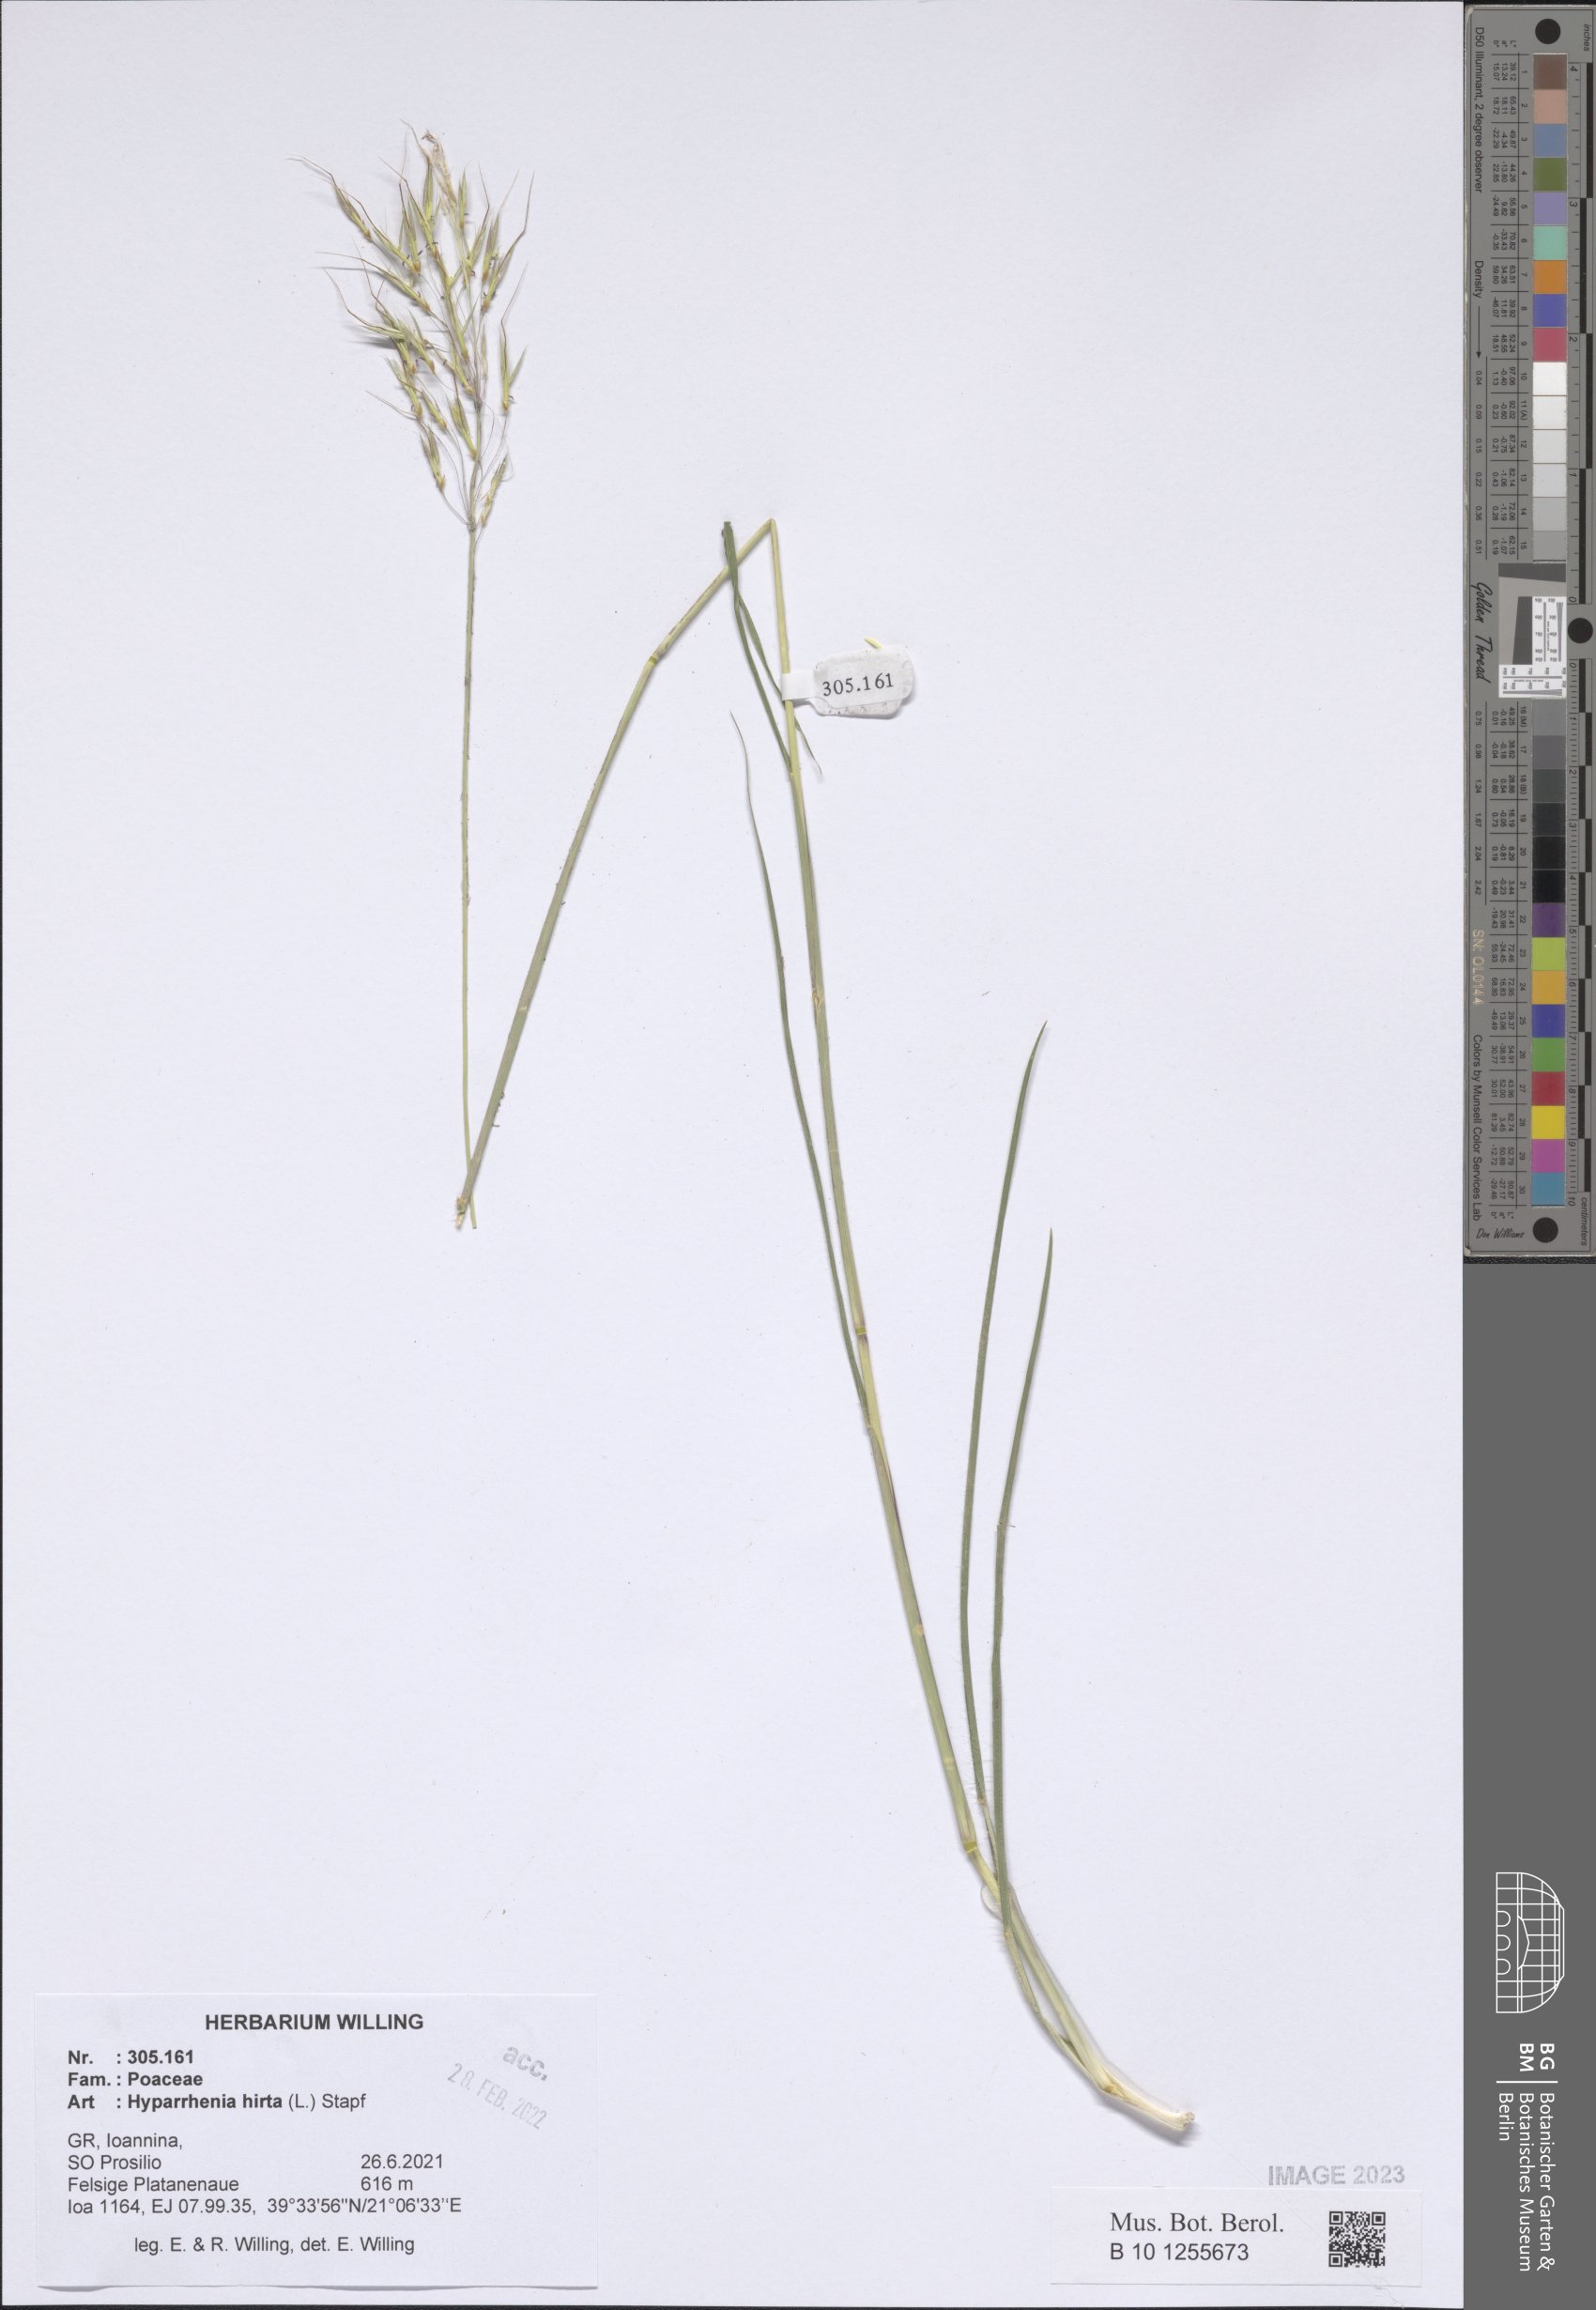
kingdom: Plantae
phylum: Tracheophyta
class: Liliopsida
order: Poales
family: Poaceae
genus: Hyparrhenia
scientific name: Hyparrhenia hirta
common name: Thatching grass
